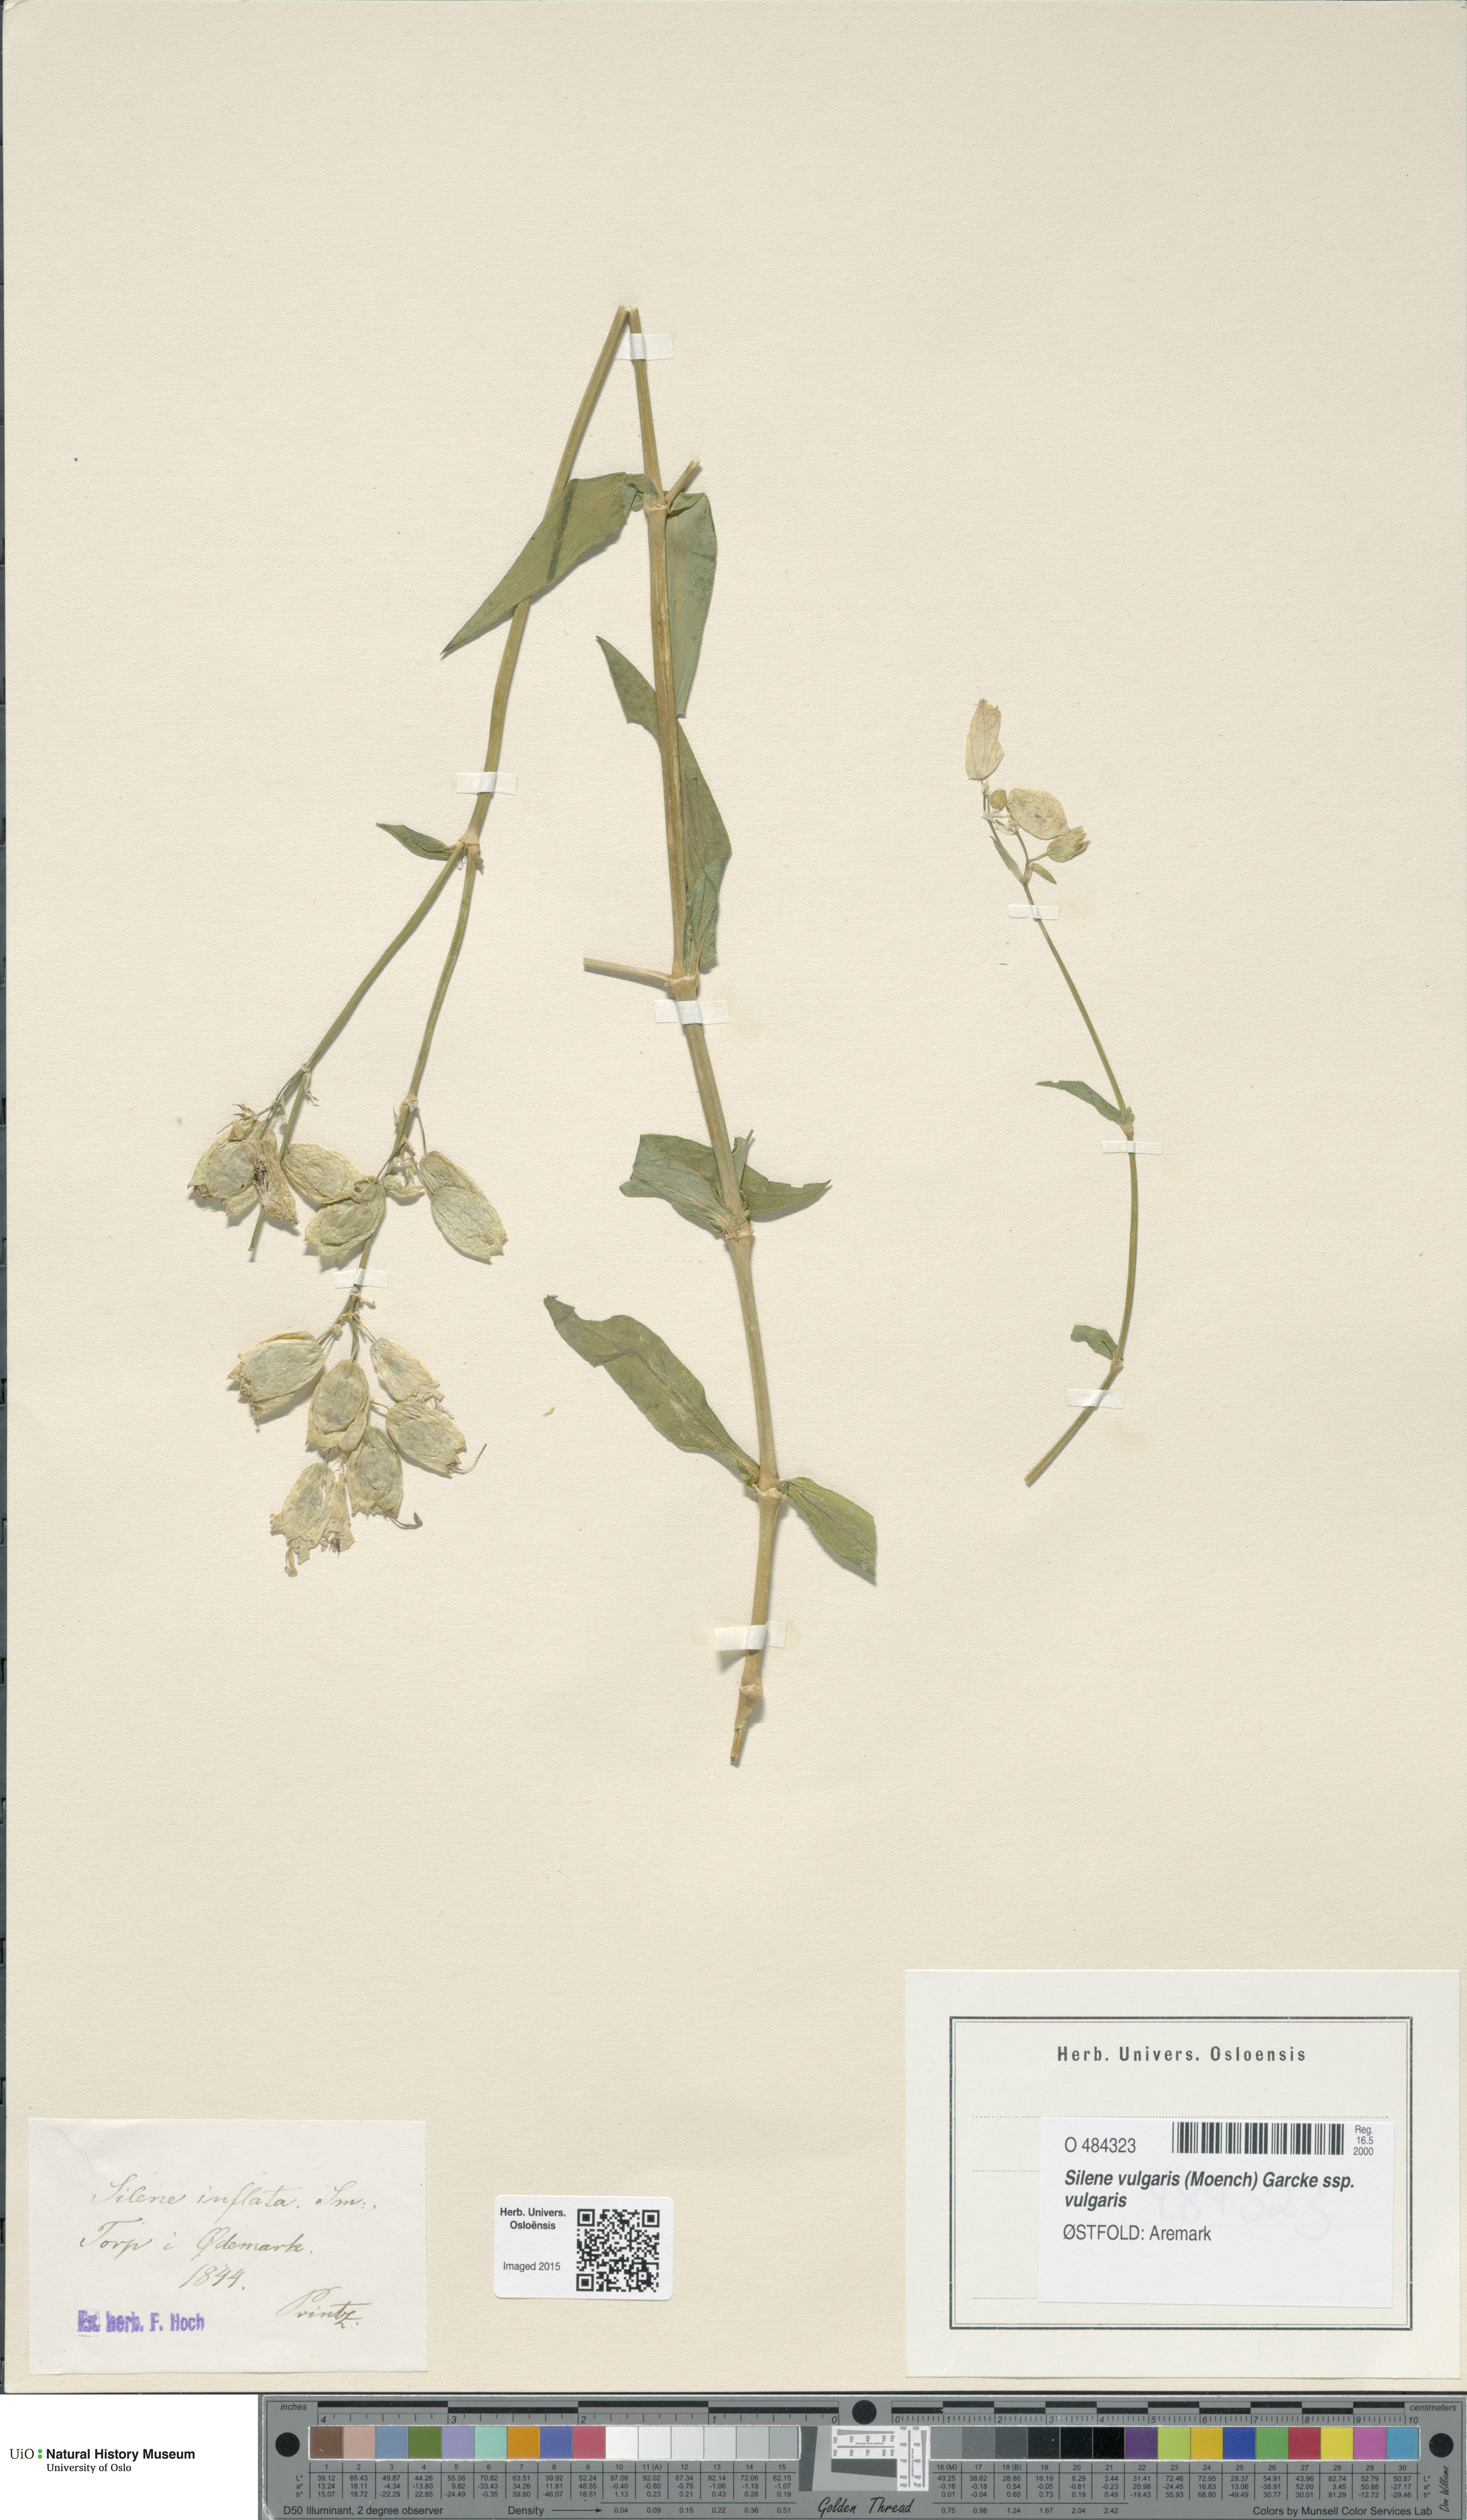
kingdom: Plantae
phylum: Tracheophyta
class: Magnoliopsida
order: Caryophyllales
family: Caryophyllaceae
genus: Silene
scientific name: Silene vulgaris
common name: Bladder campion
